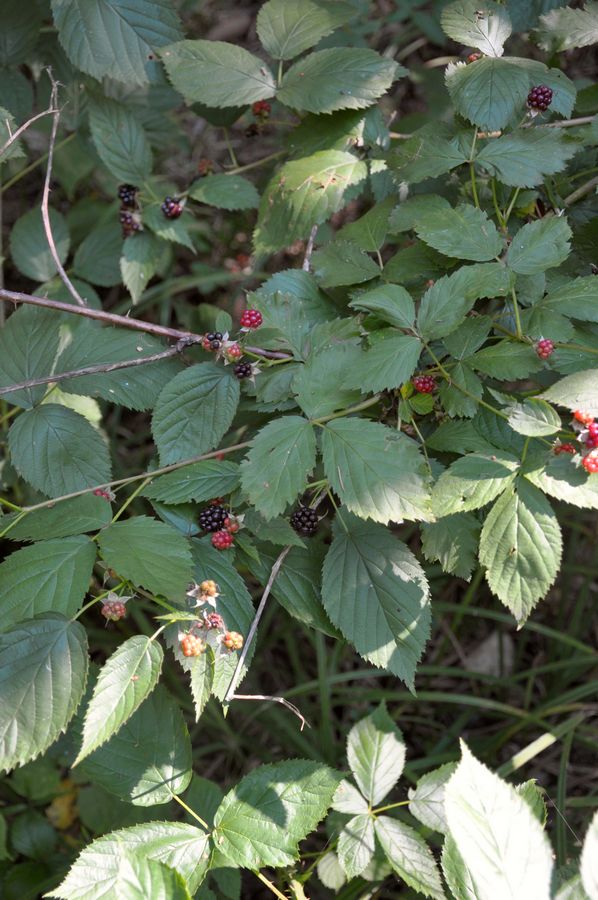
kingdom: Plantae
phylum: Tracheophyta
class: Magnoliopsida
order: Rosales
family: Rosaceae
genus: Rubus
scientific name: Rubus polonicus
